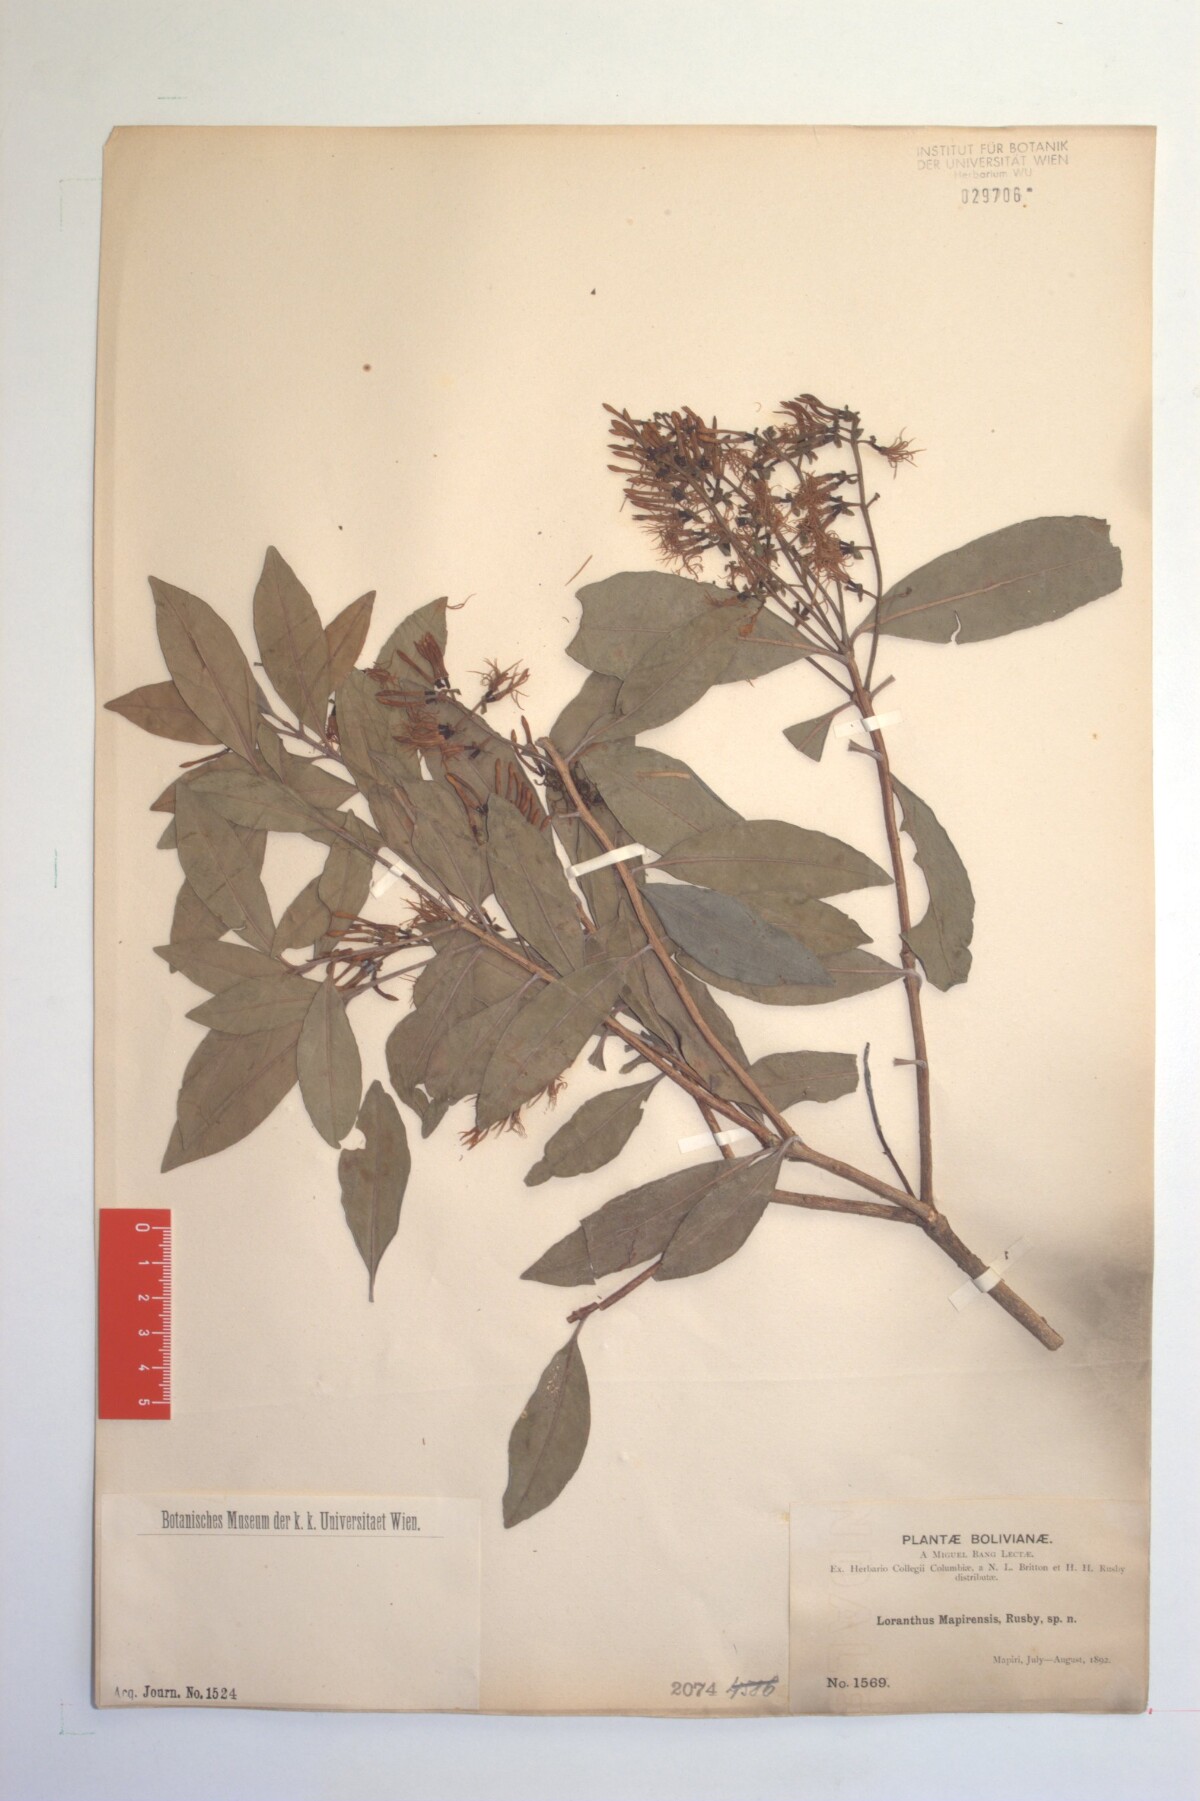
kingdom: Plantae
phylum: Tracheophyta
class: Magnoliopsida
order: Santalales
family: Loranthaceae
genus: Tripodanthus
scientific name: Tripodanthus acutifolius
